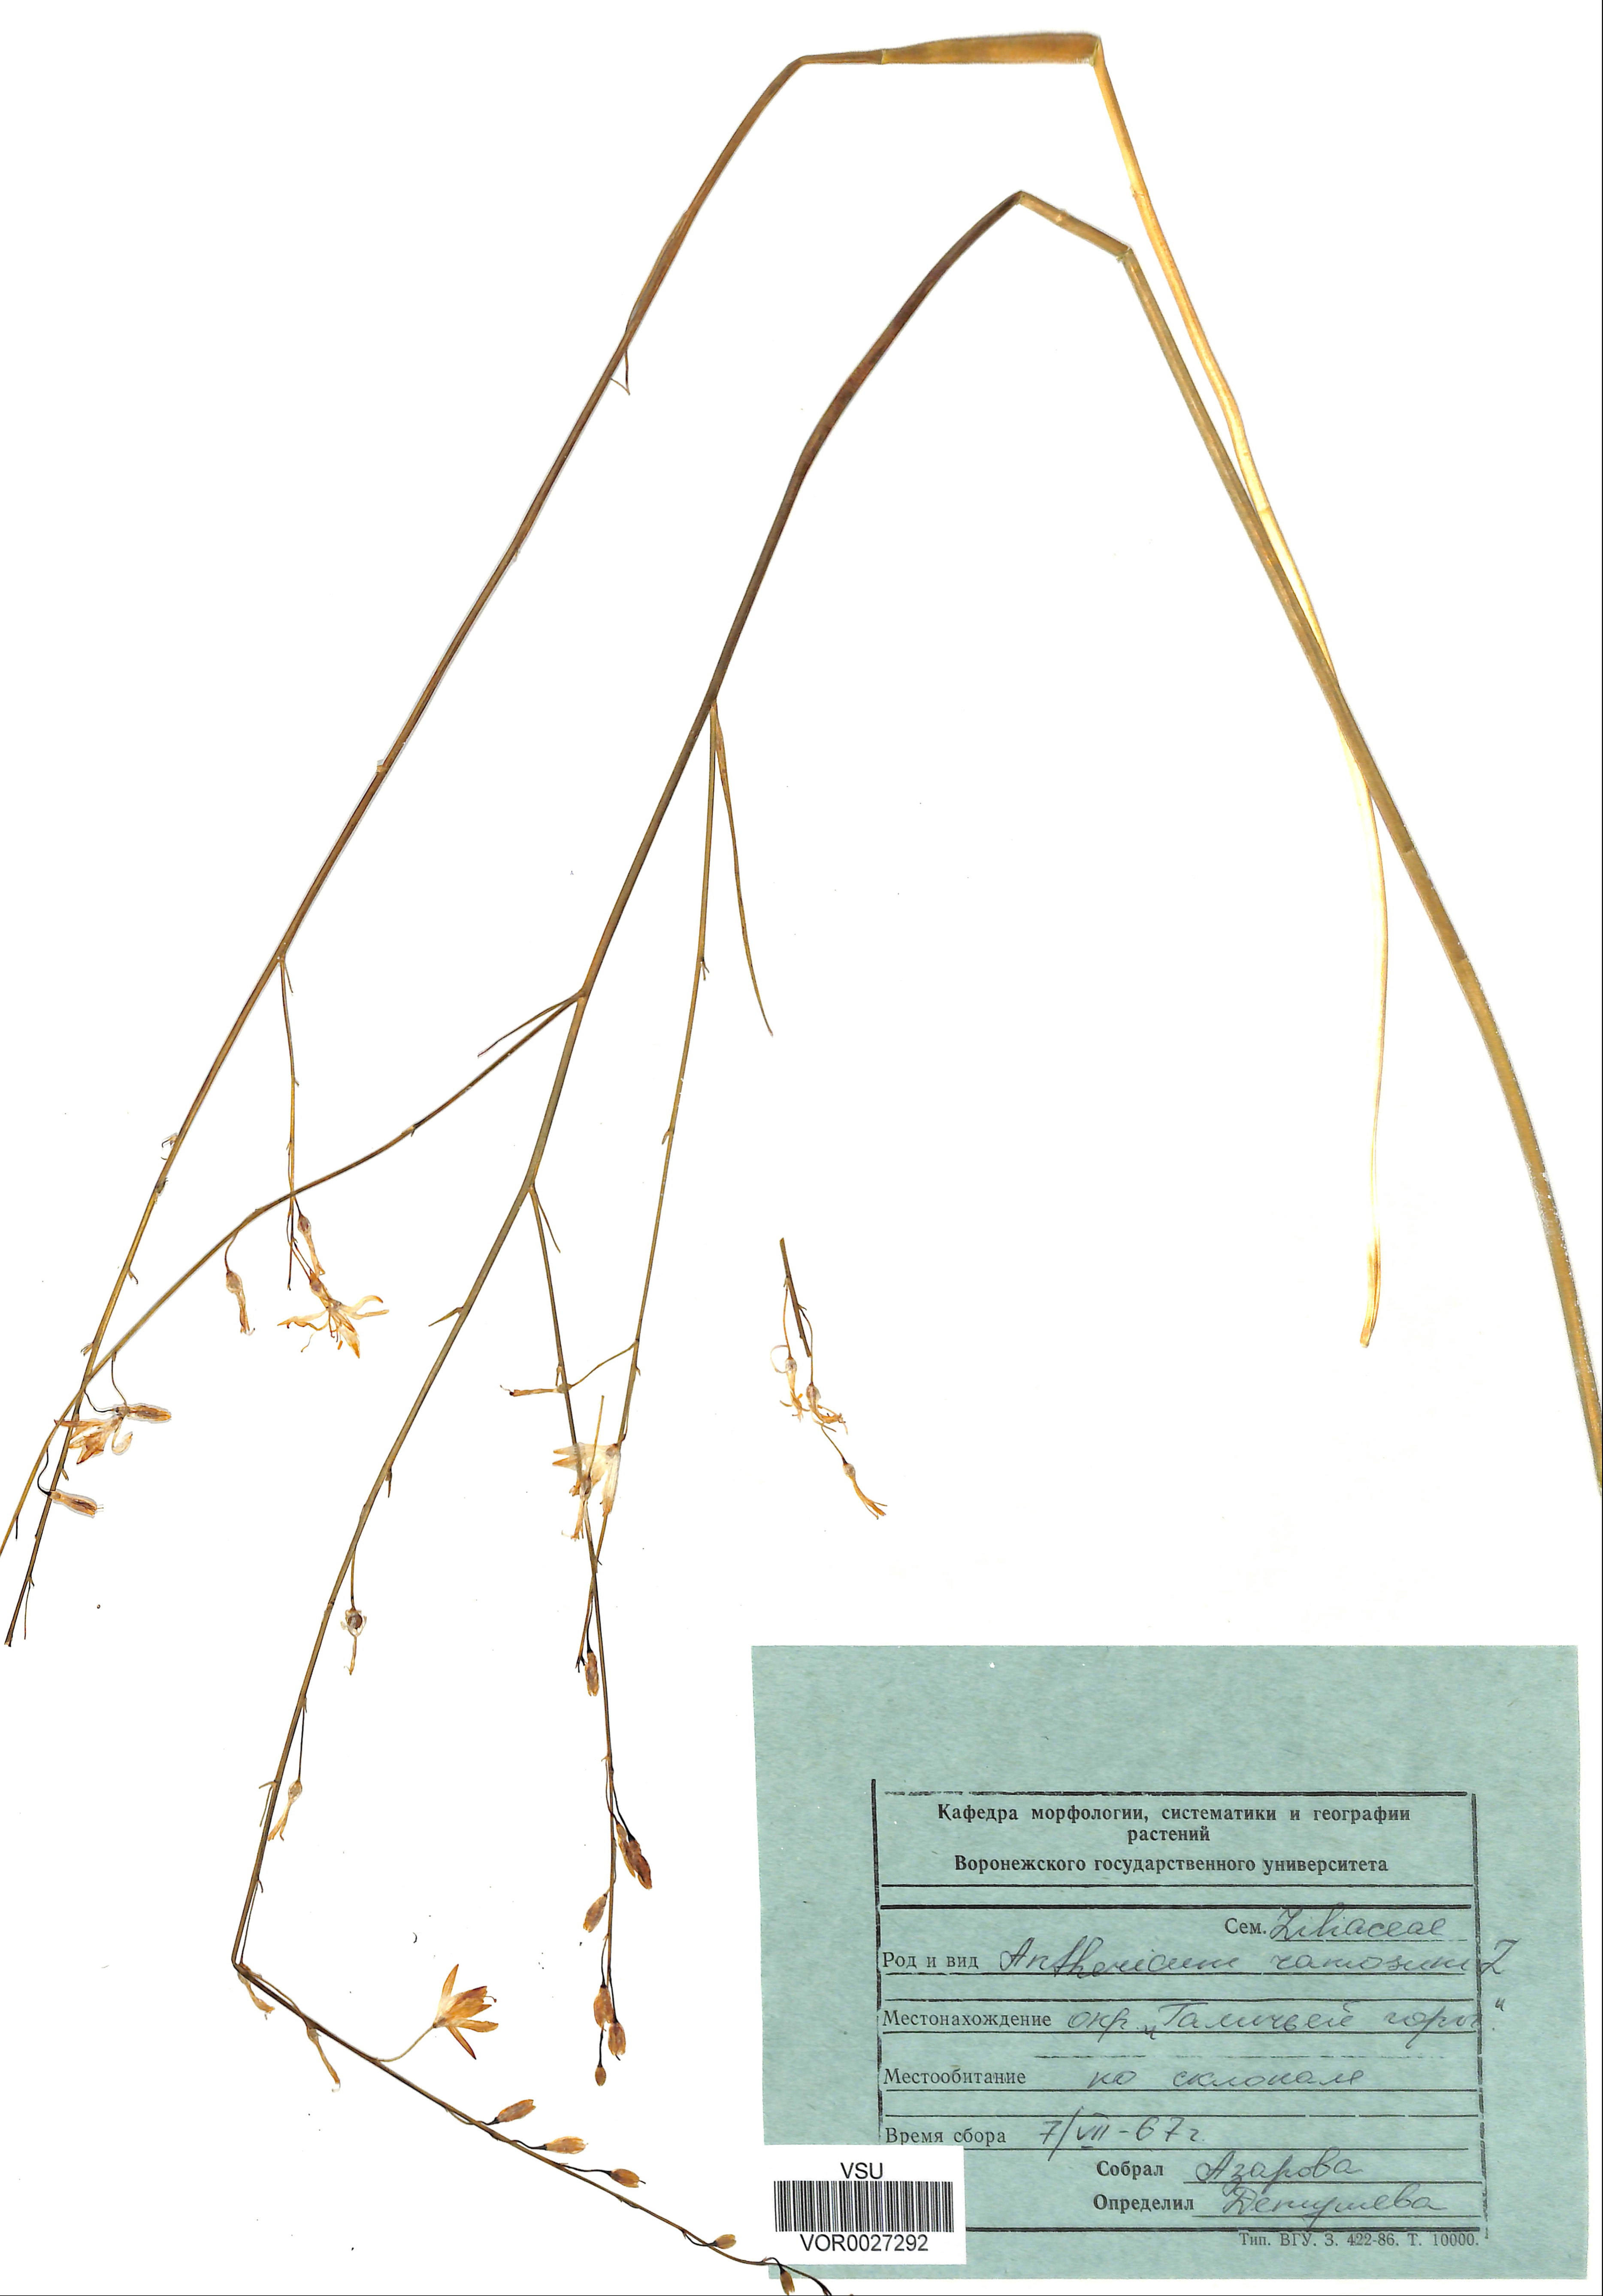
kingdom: Plantae
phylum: Tracheophyta
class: Liliopsida
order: Asparagales
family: Asparagaceae
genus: Anthericum
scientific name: Anthericum ramosum
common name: Branched st. bernard's-lily
